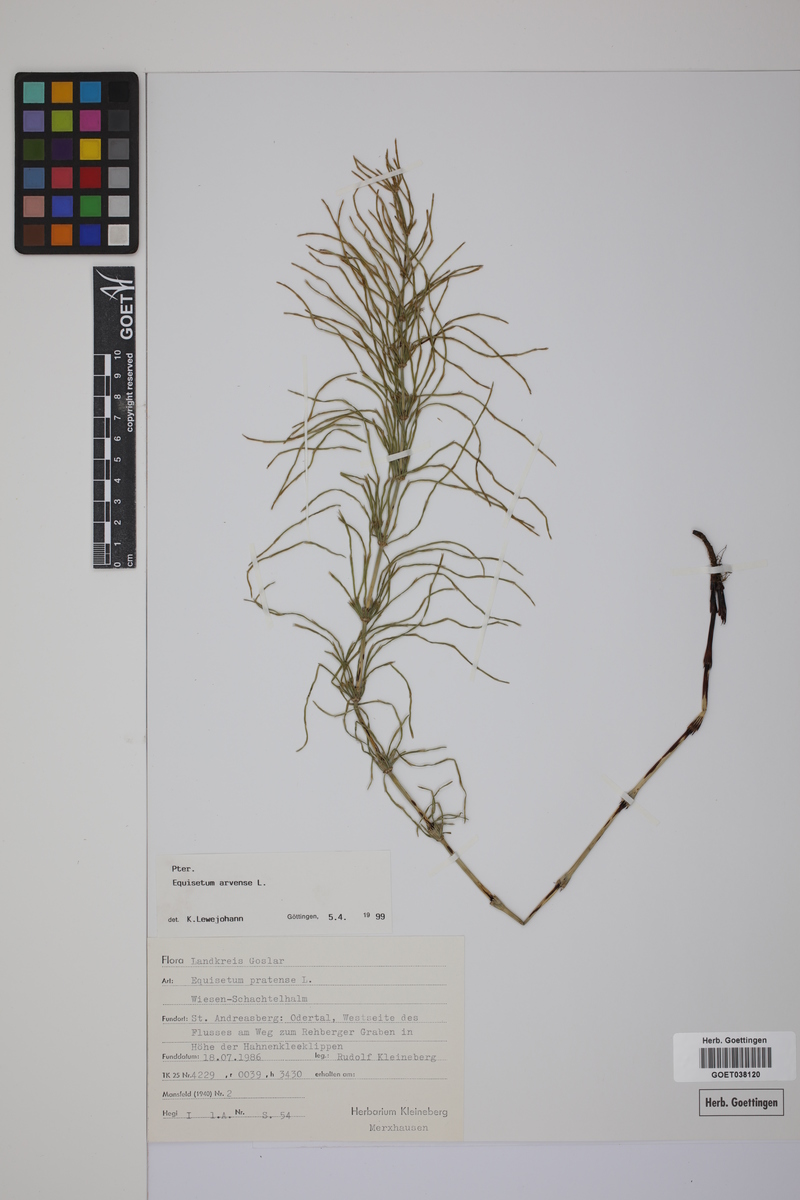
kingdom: Plantae
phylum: Tracheophyta
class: Polypodiopsida
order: Equisetales
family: Equisetaceae
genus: Equisetum
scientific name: Equisetum arvense
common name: Field horsetail
